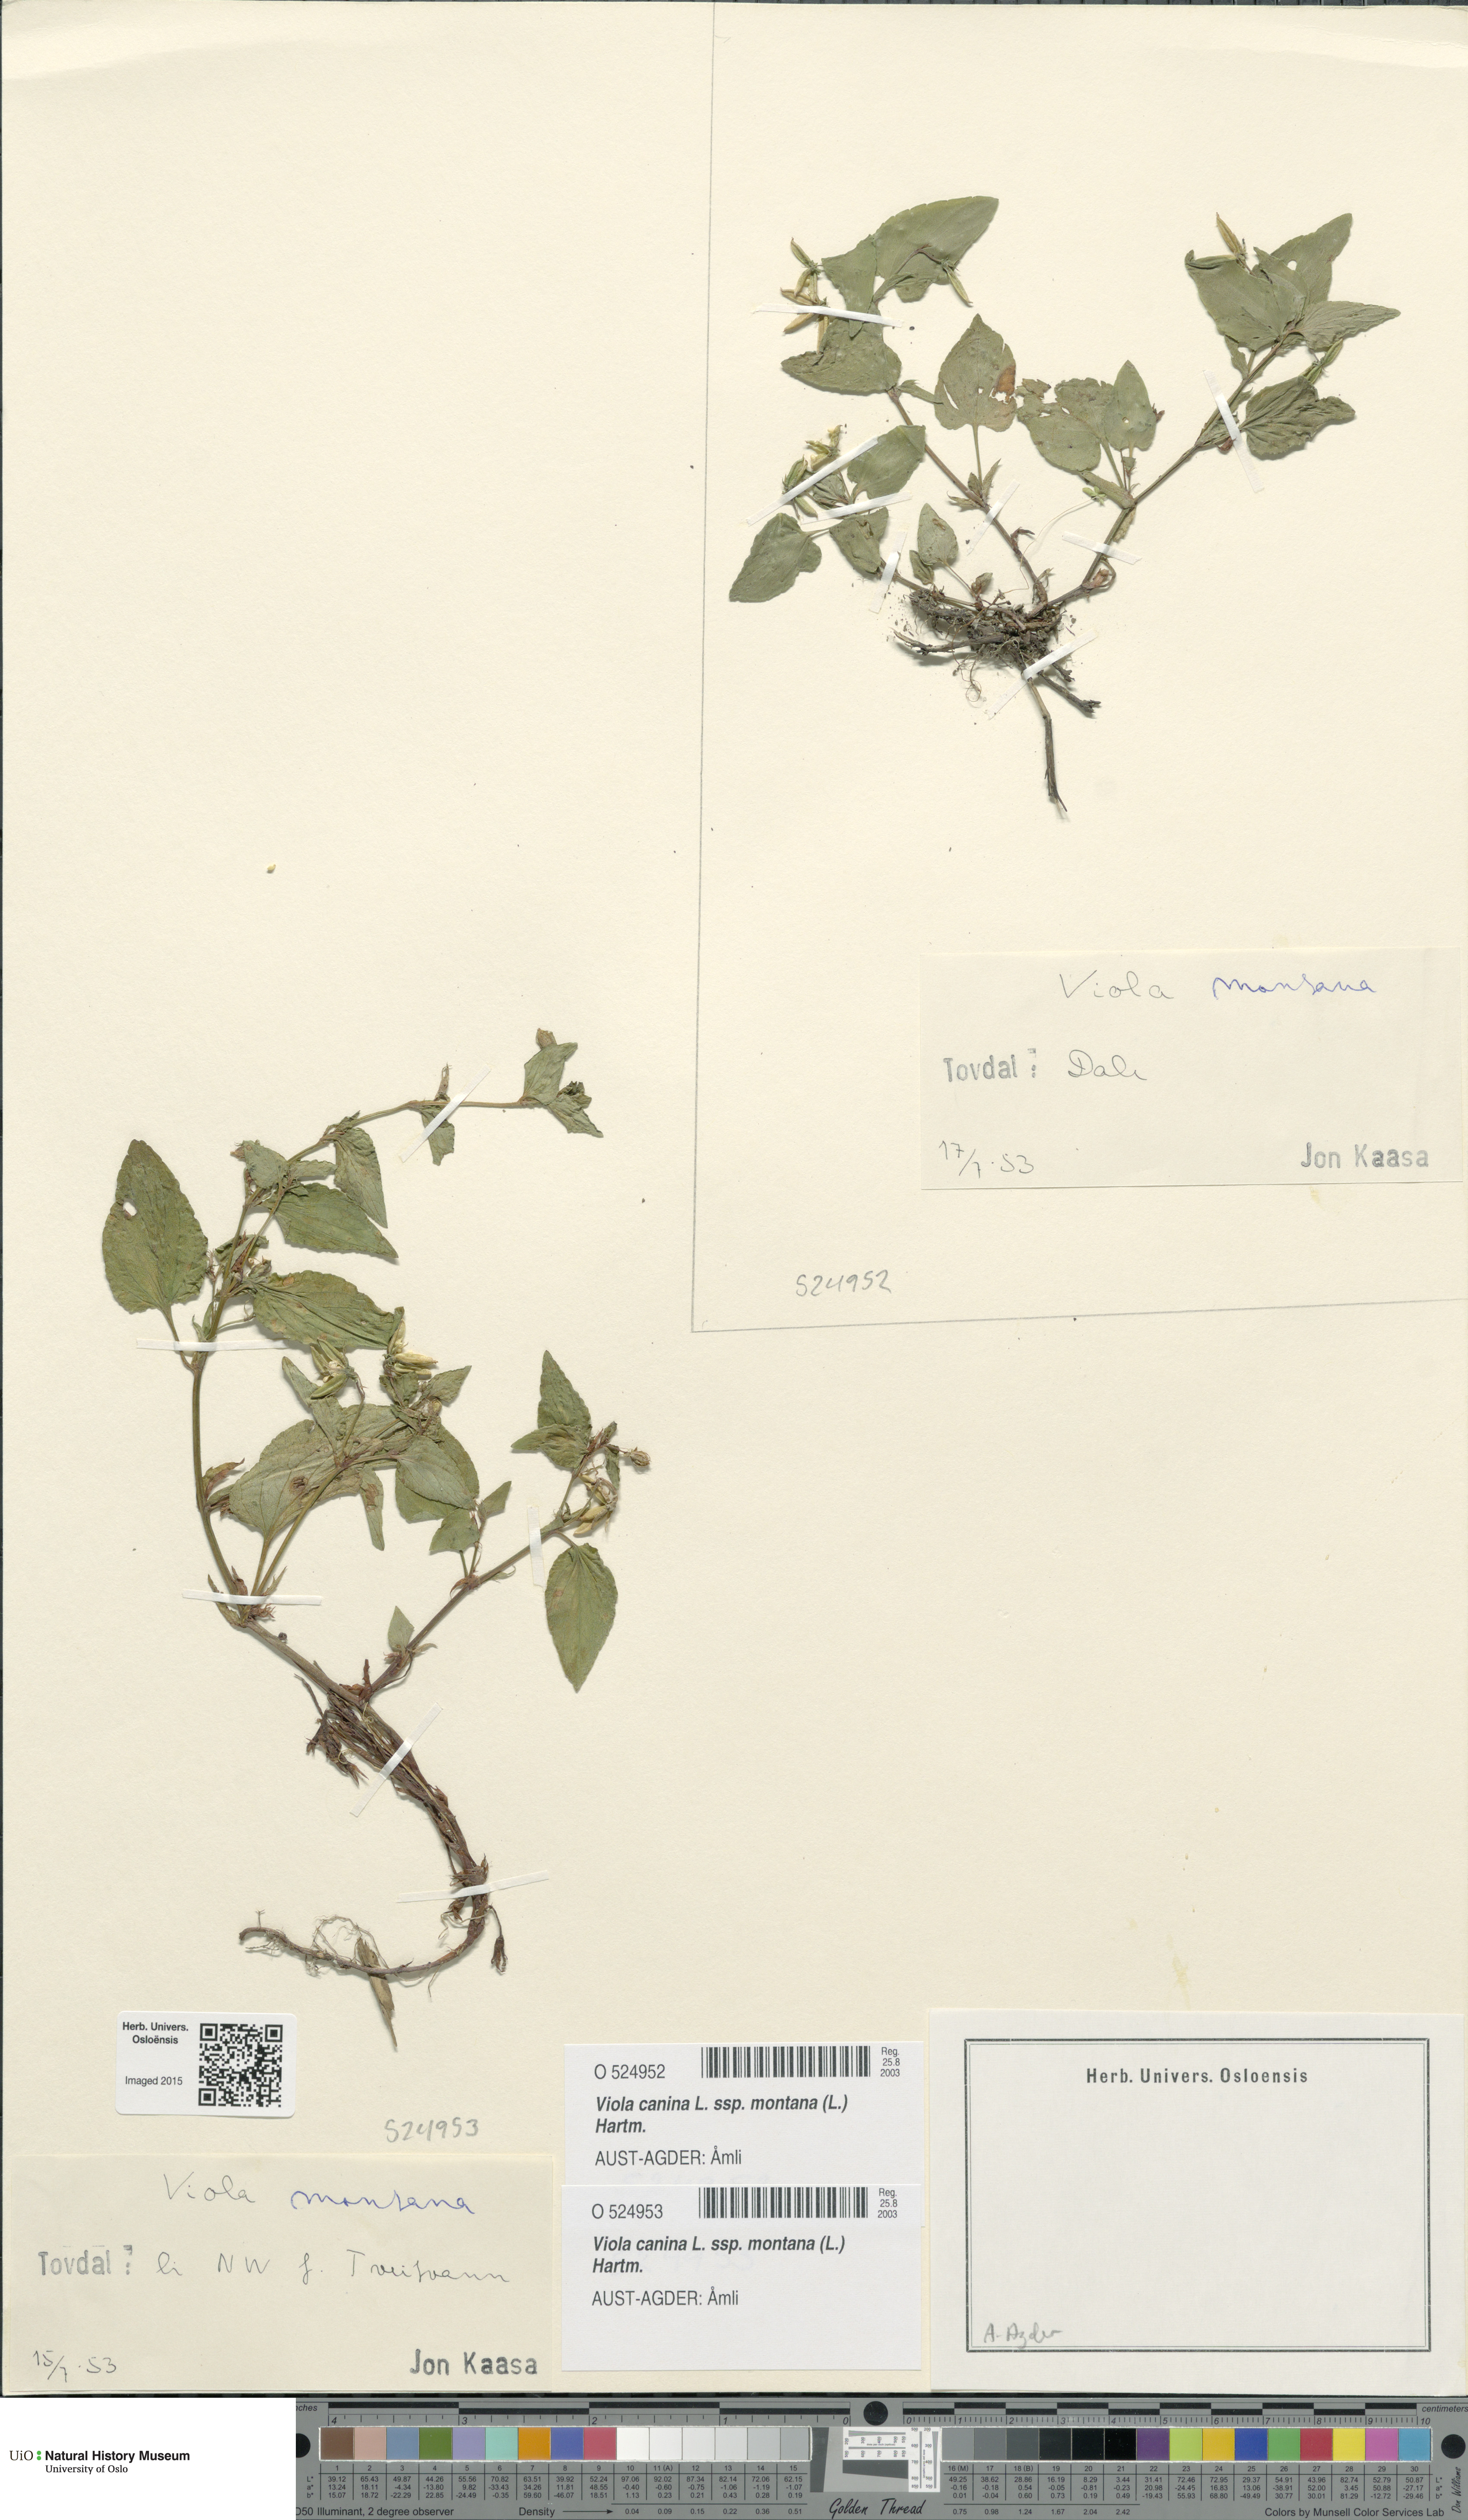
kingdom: Plantae
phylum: Tracheophyta
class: Magnoliopsida
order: Malpighiales
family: Violaceae
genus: Viola
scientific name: Viola ruppii
